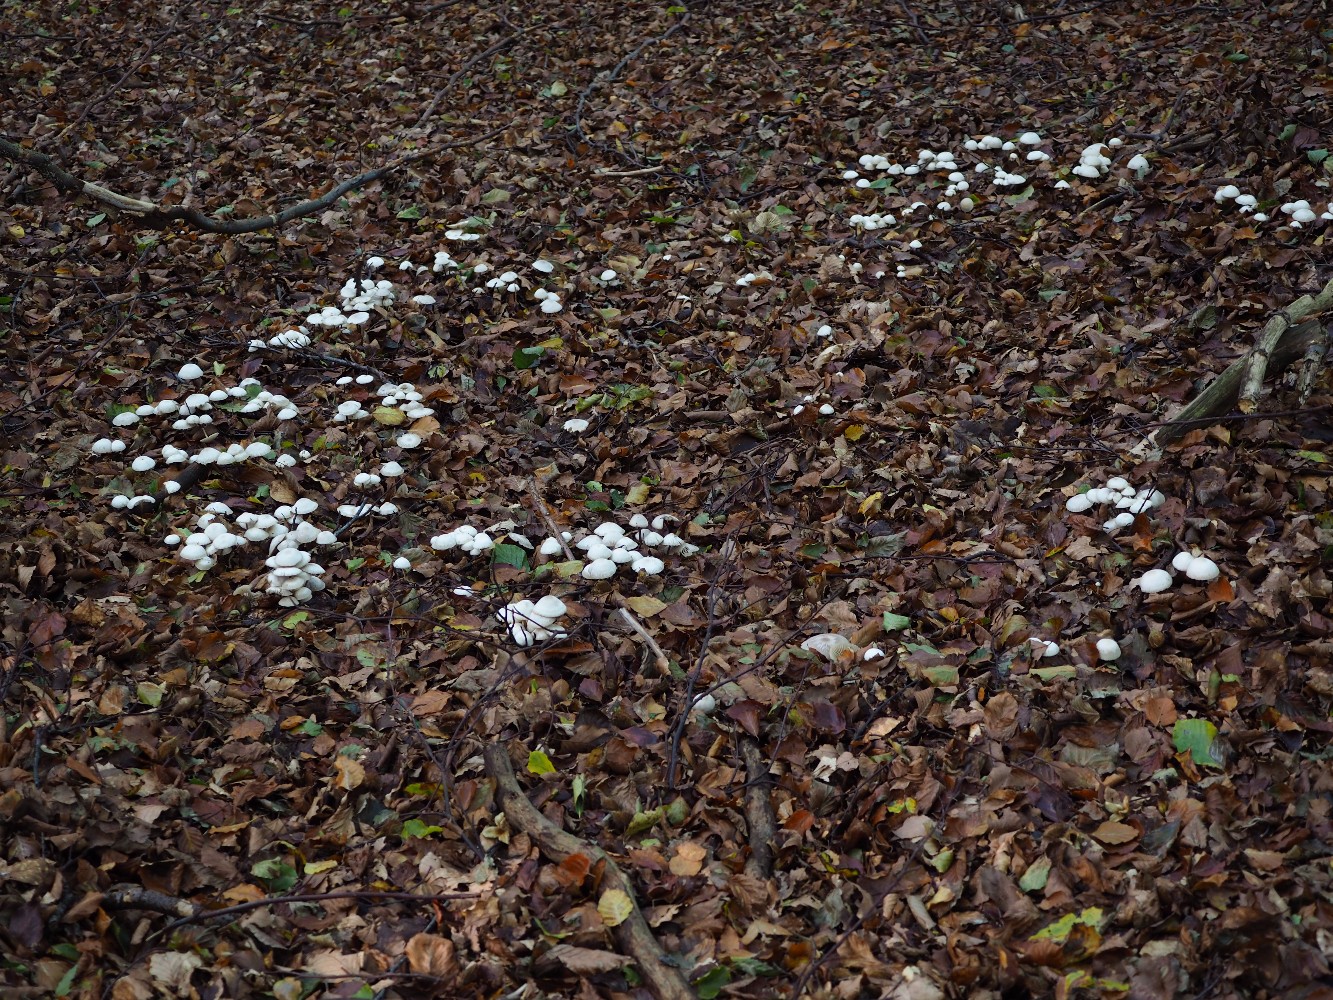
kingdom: Fungi
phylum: Basidiomycota
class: Agaricomycetes
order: Agaricales
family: Marasmiaceae
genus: Marasmius
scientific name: Marasmius wynneae
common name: hvælvet bruskhat
